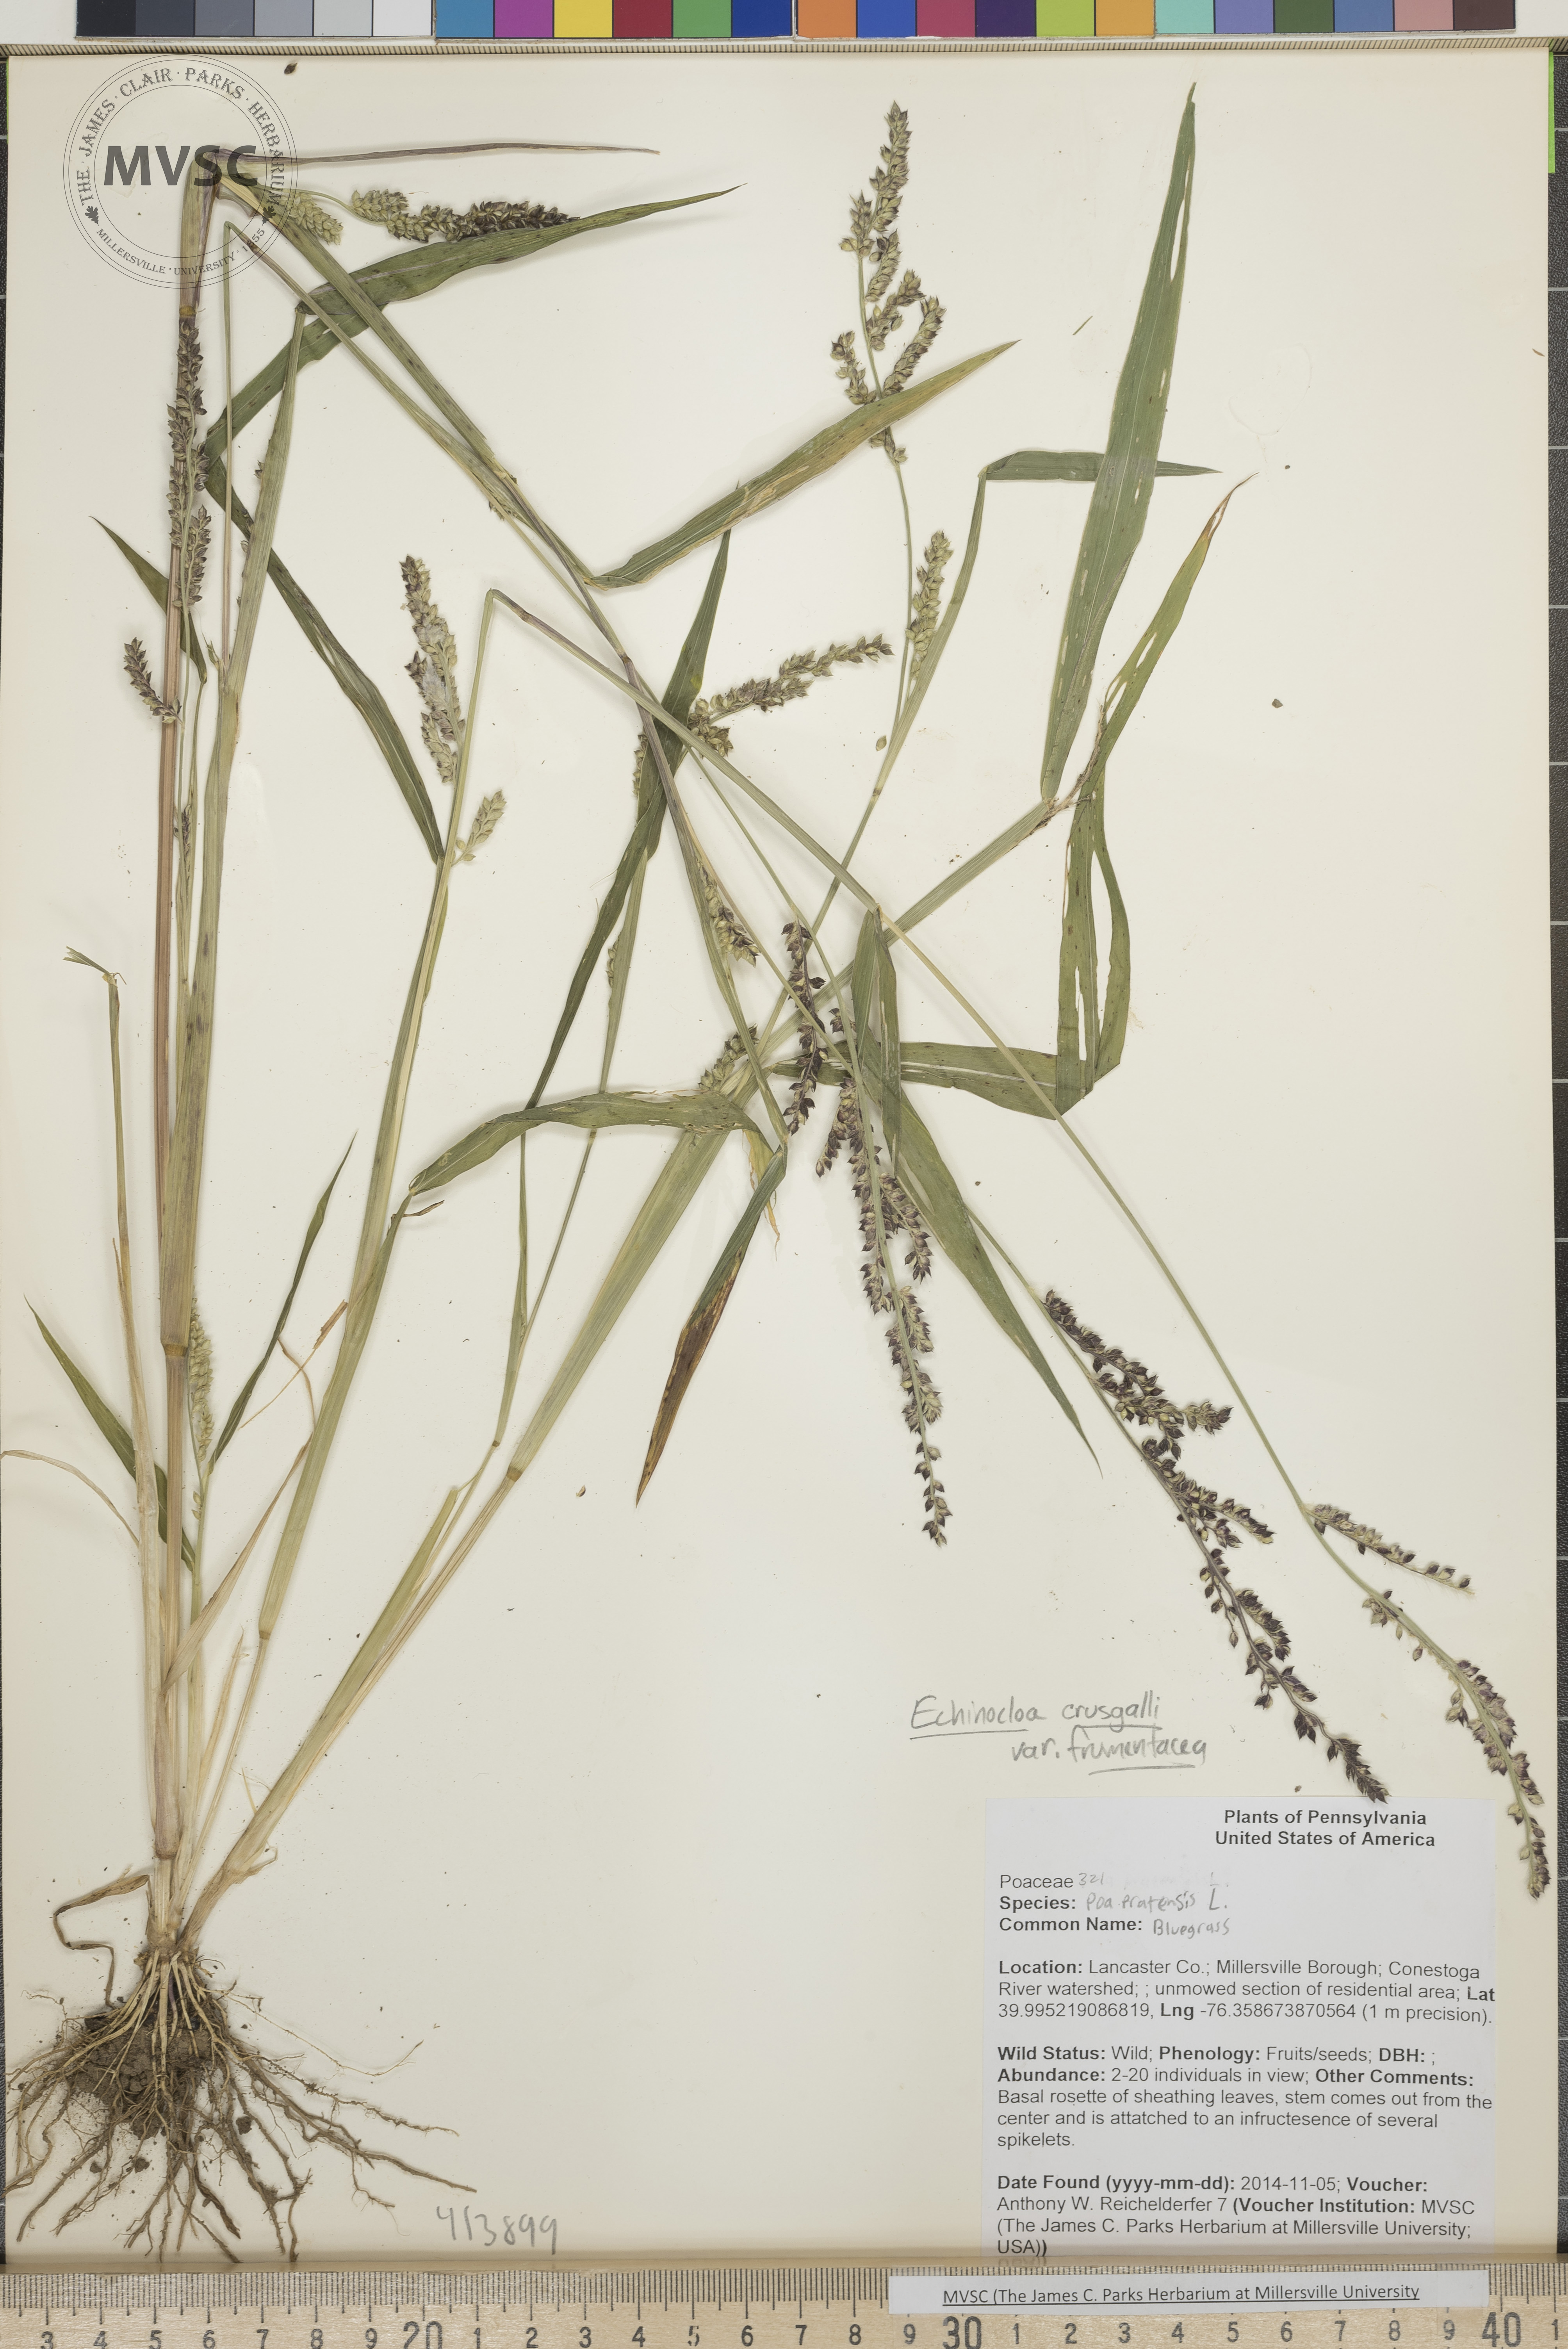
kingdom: Plantae
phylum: Tracheophyta
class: Liliopsida
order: Poales
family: Poaceae
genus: Echinochloa
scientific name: Echinochloa
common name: Japanese-millet
